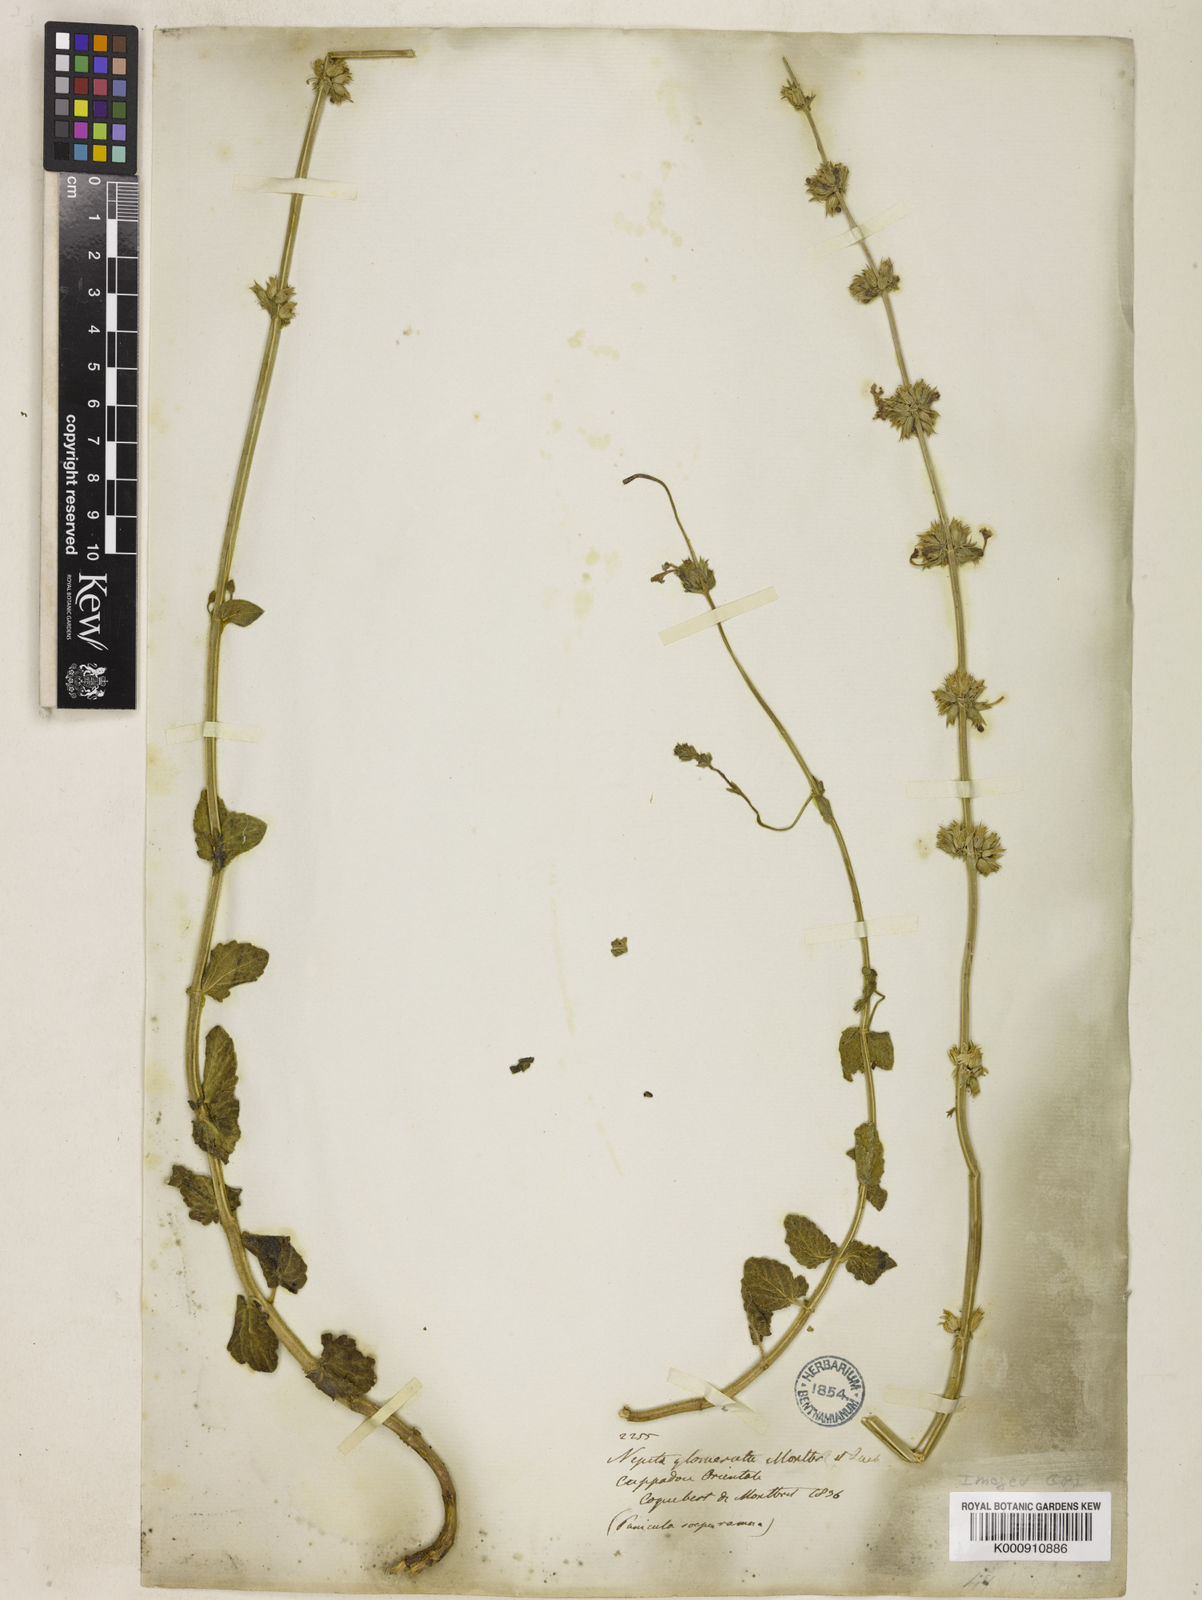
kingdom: Plantae
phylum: Tracheophyta
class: Magnoliopsida
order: Lamiales
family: Lamiaceae
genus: Nepeta
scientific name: Nepeta
